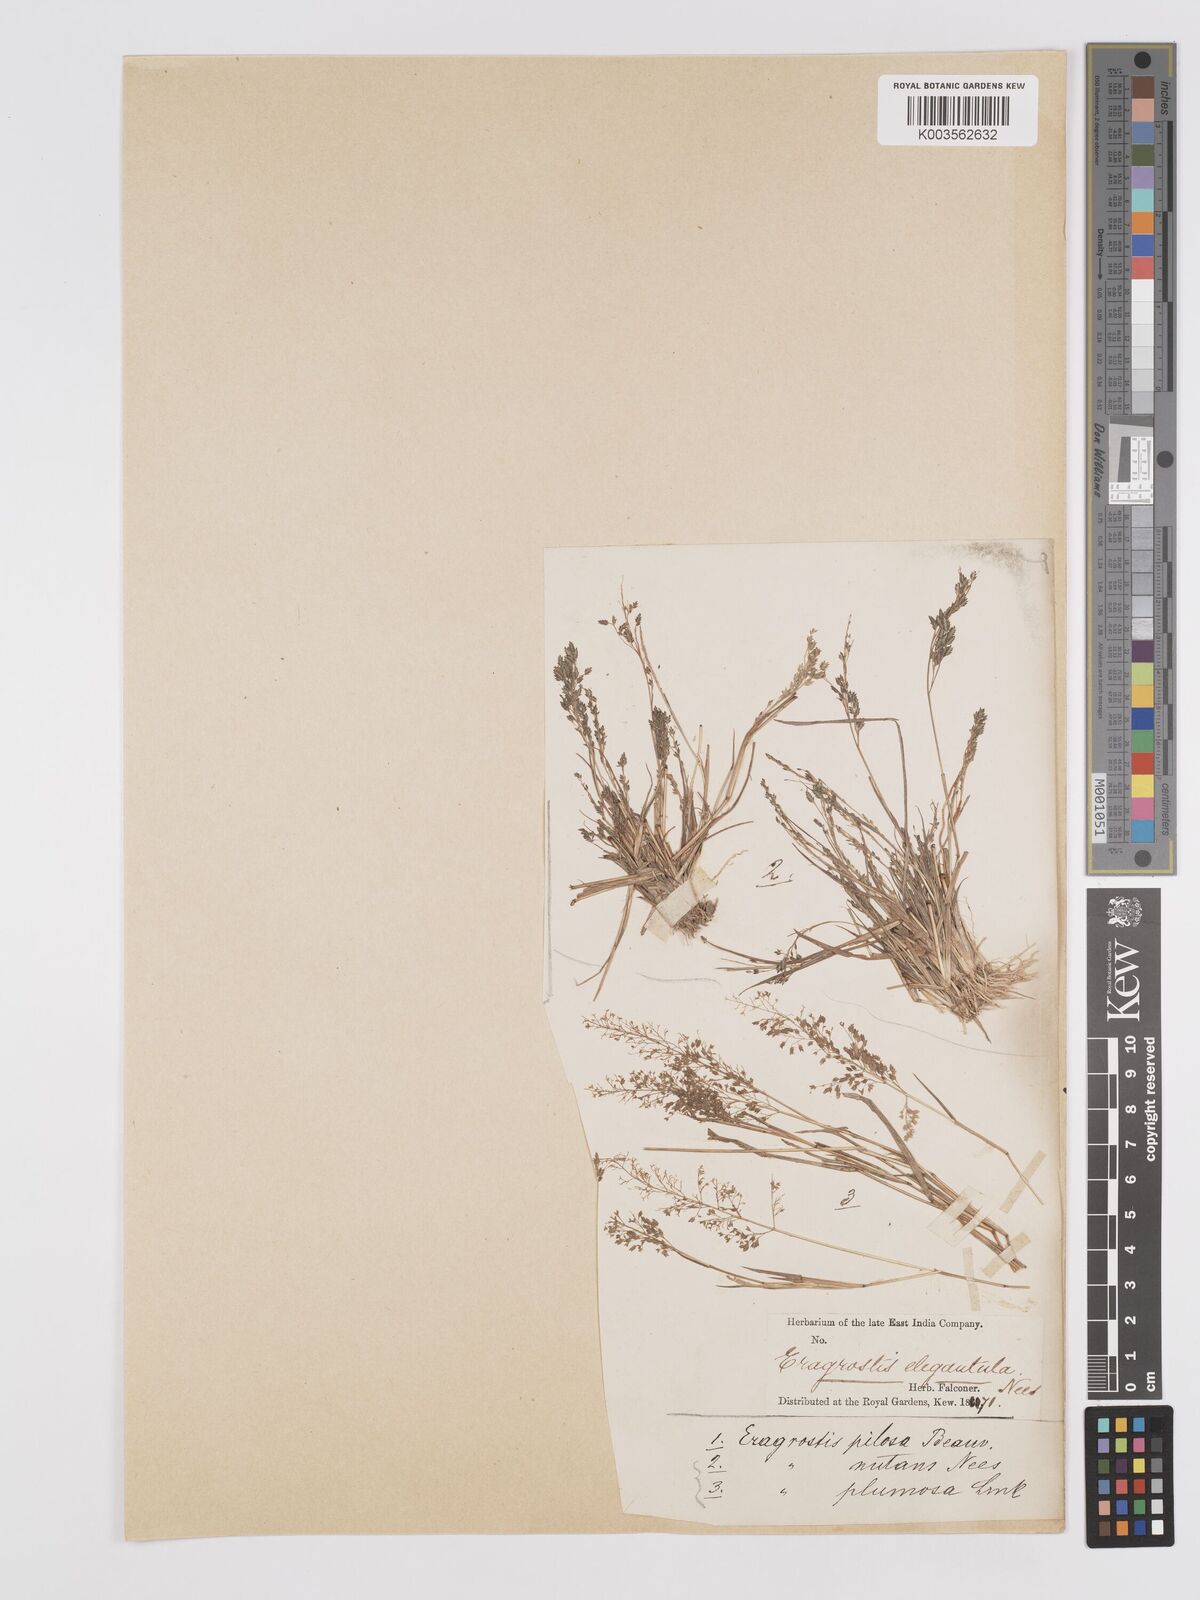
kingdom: Plantae
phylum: Tracheophyta
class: Liliopsida
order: Poales
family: Poaceae
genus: Eragrostis
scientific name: Eragrostis tenella
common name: Japanese lovegrass
